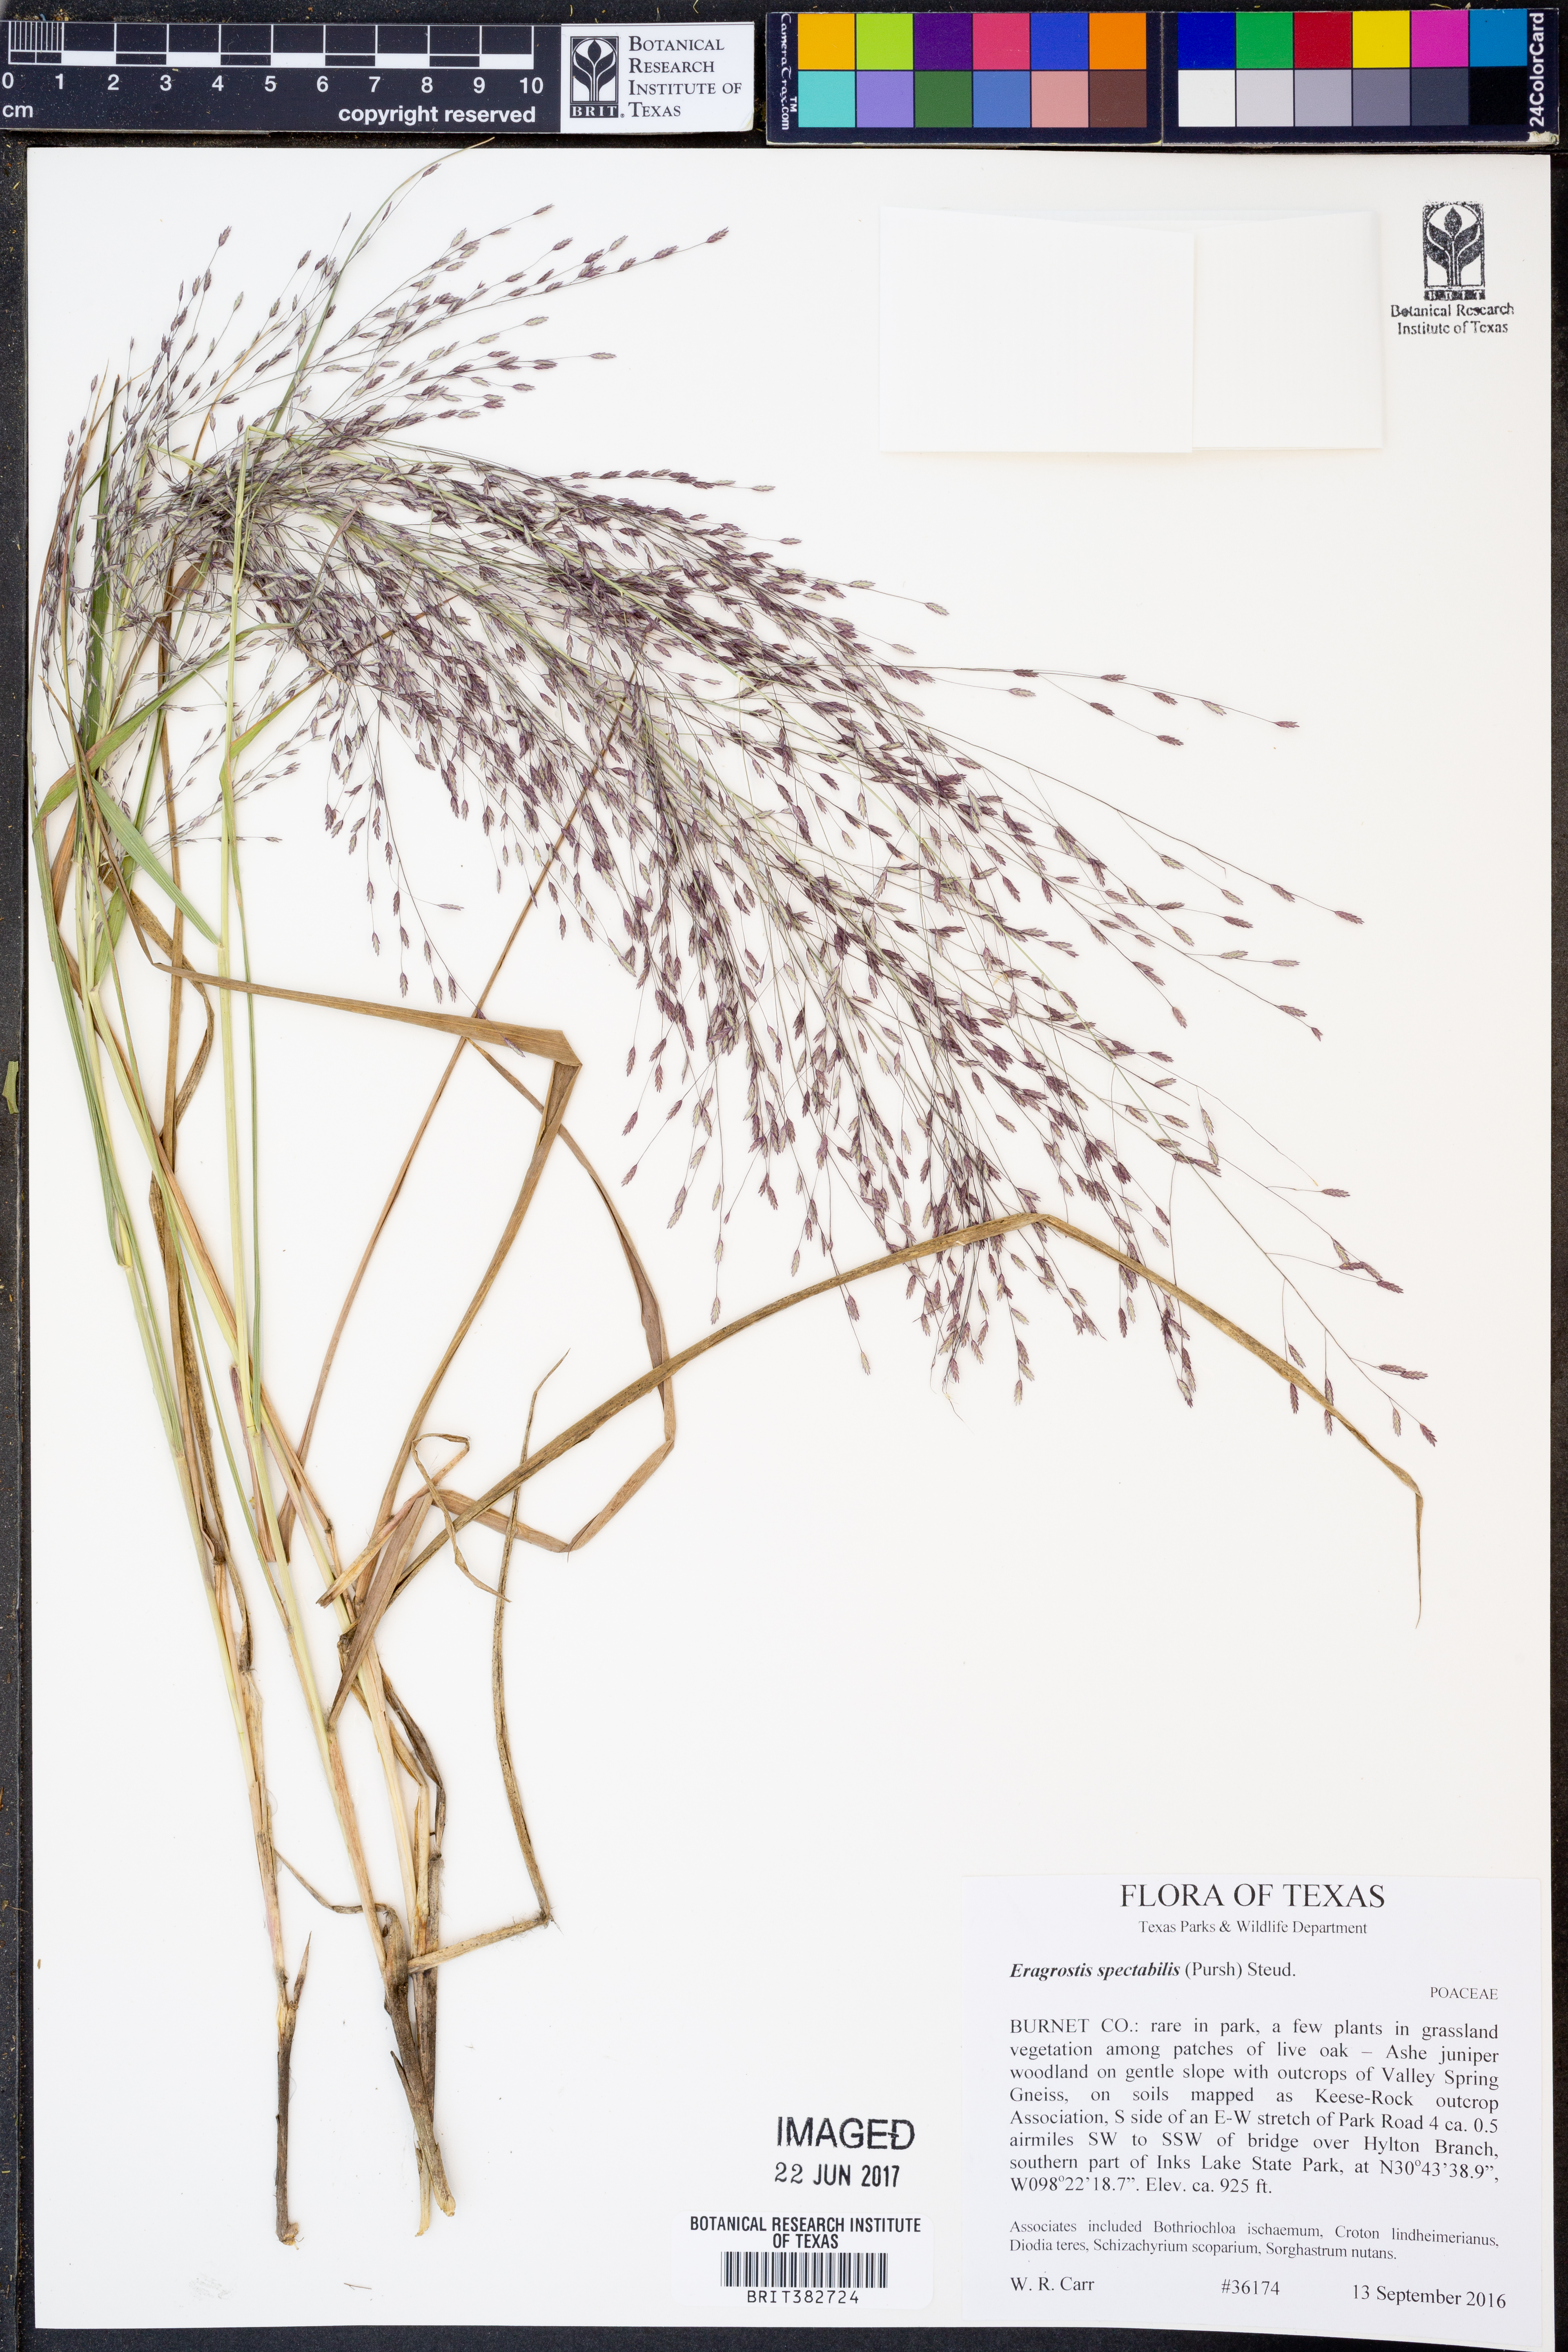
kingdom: Plantae
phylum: Tracheophyta
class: Liliopsida
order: Poales
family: Poaceae
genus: Eragrostis
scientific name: Eragrostis spectabilis
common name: Petticoat-climber
